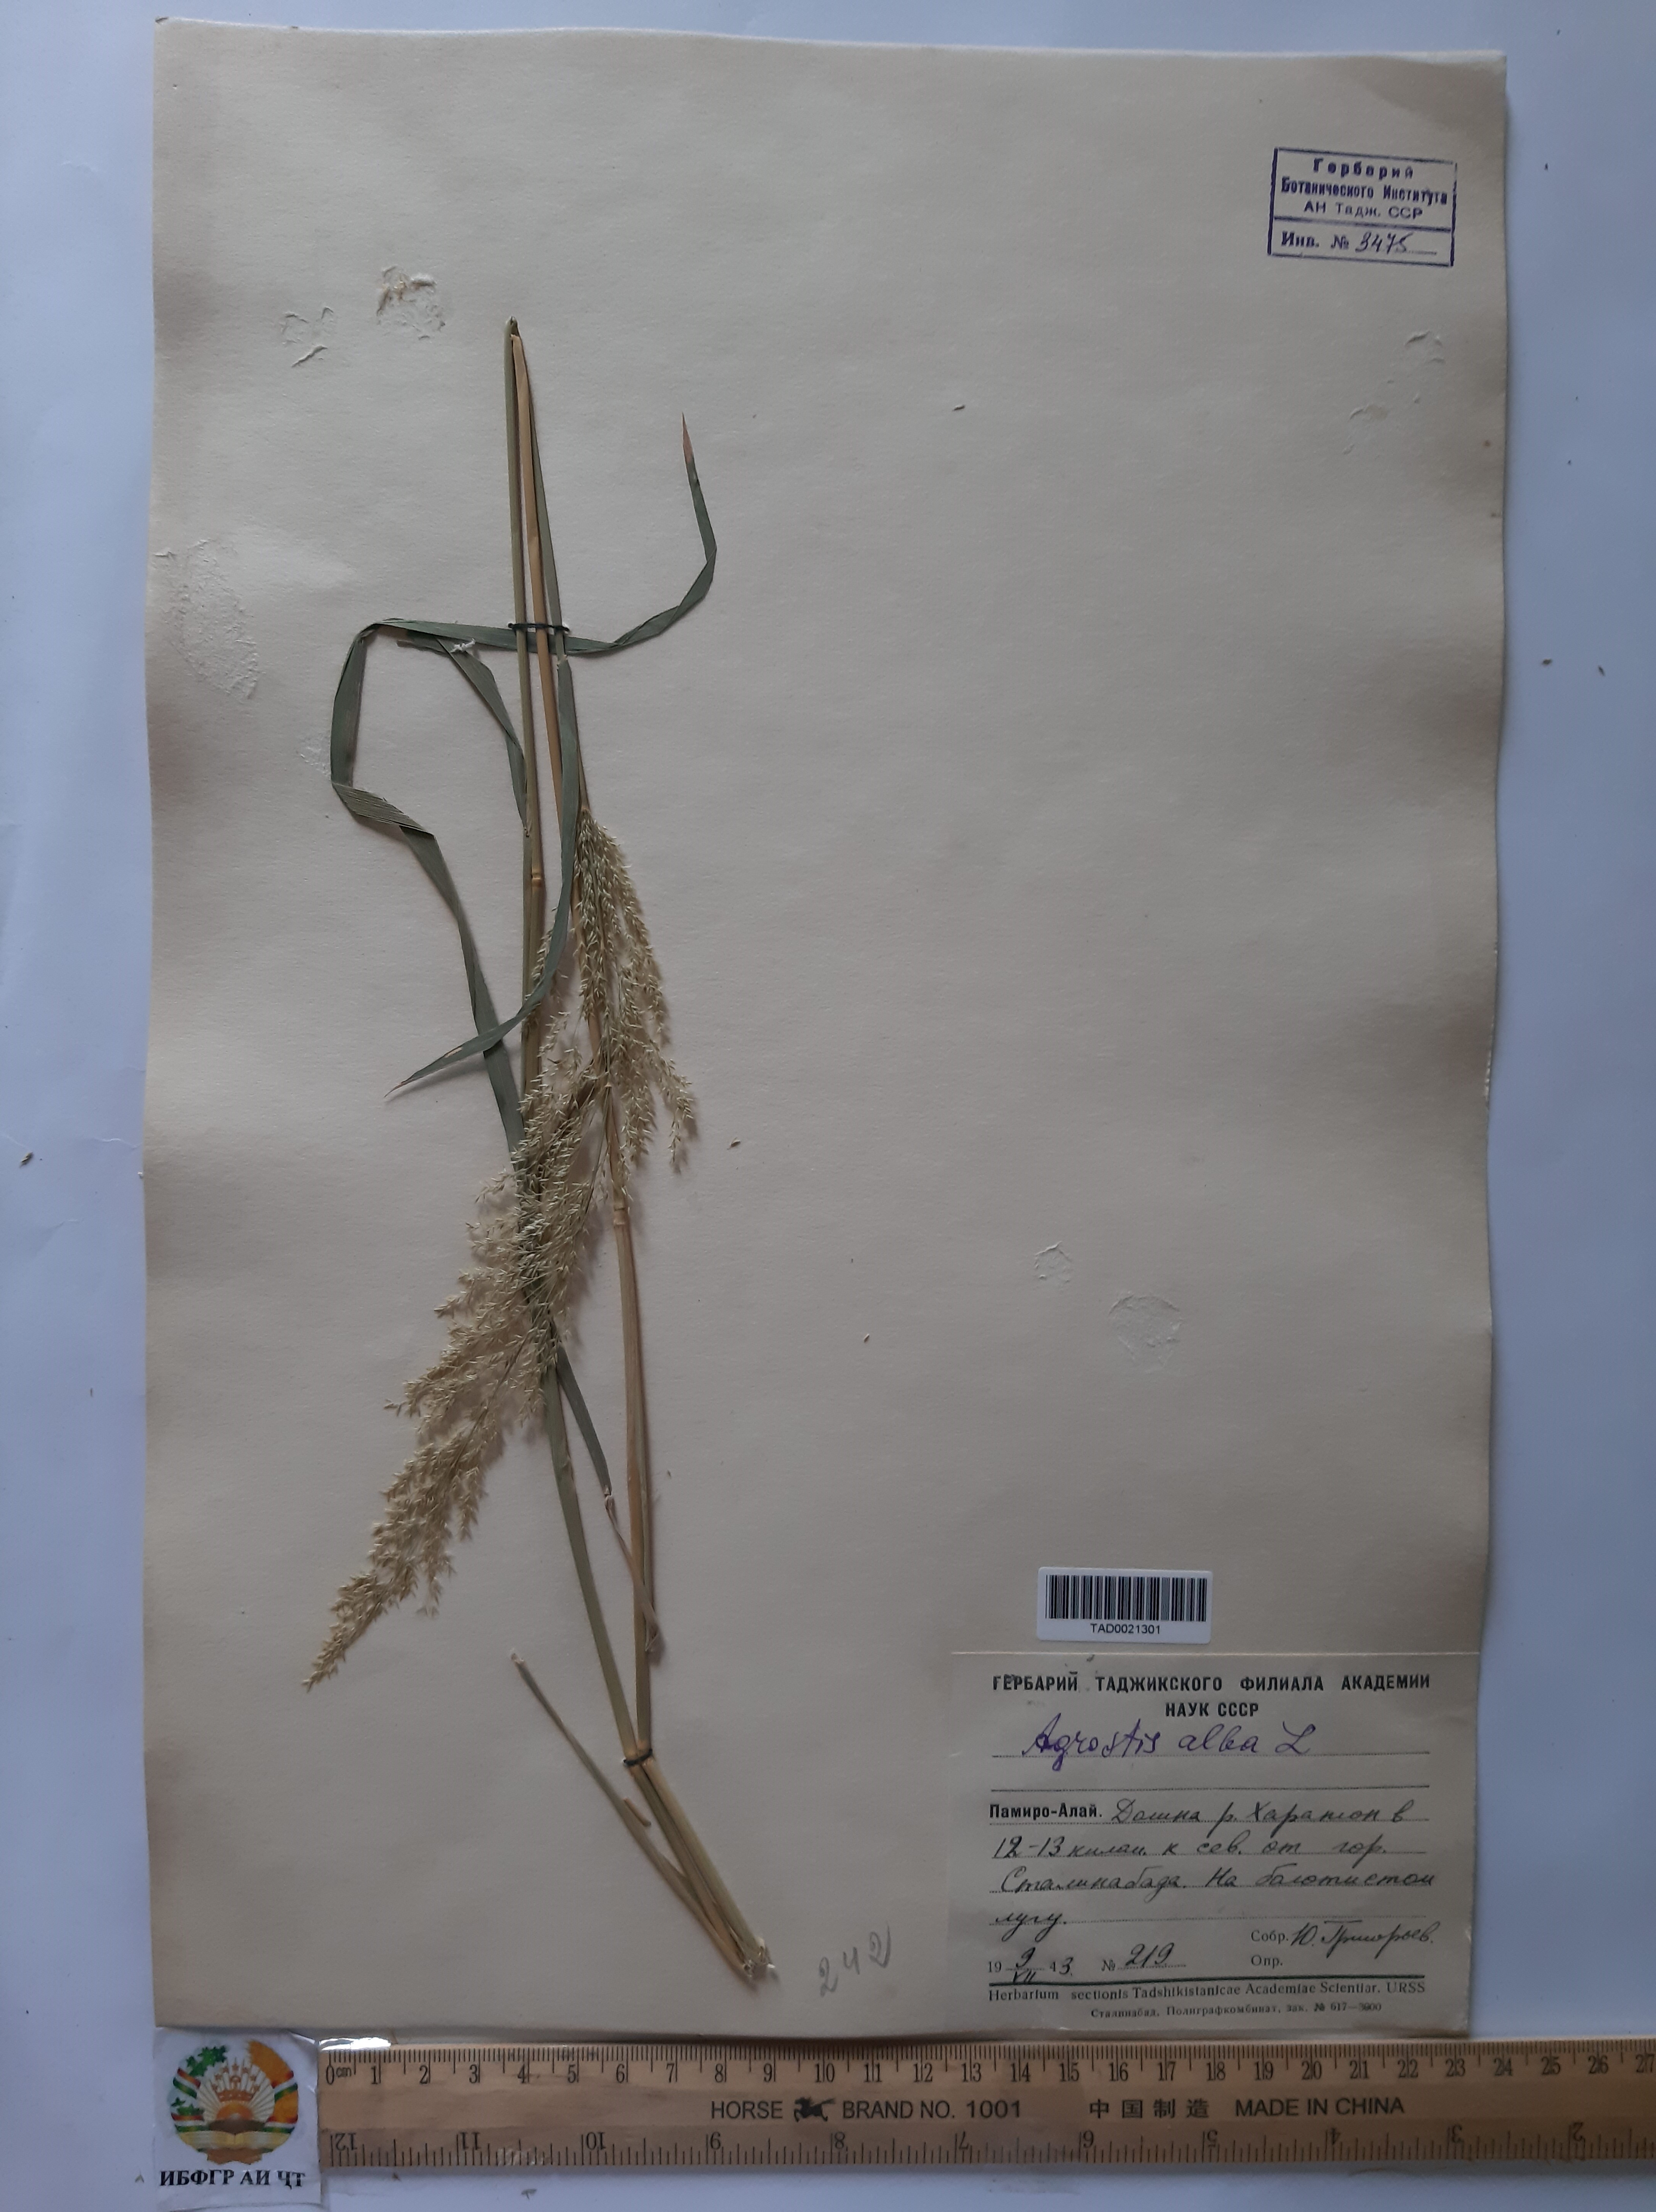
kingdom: Plantae
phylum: Tracheophyta
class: Liliopsida
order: Poales
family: Poaceae
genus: Poa
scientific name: Poa nemoralis
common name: Wood bluegrass
